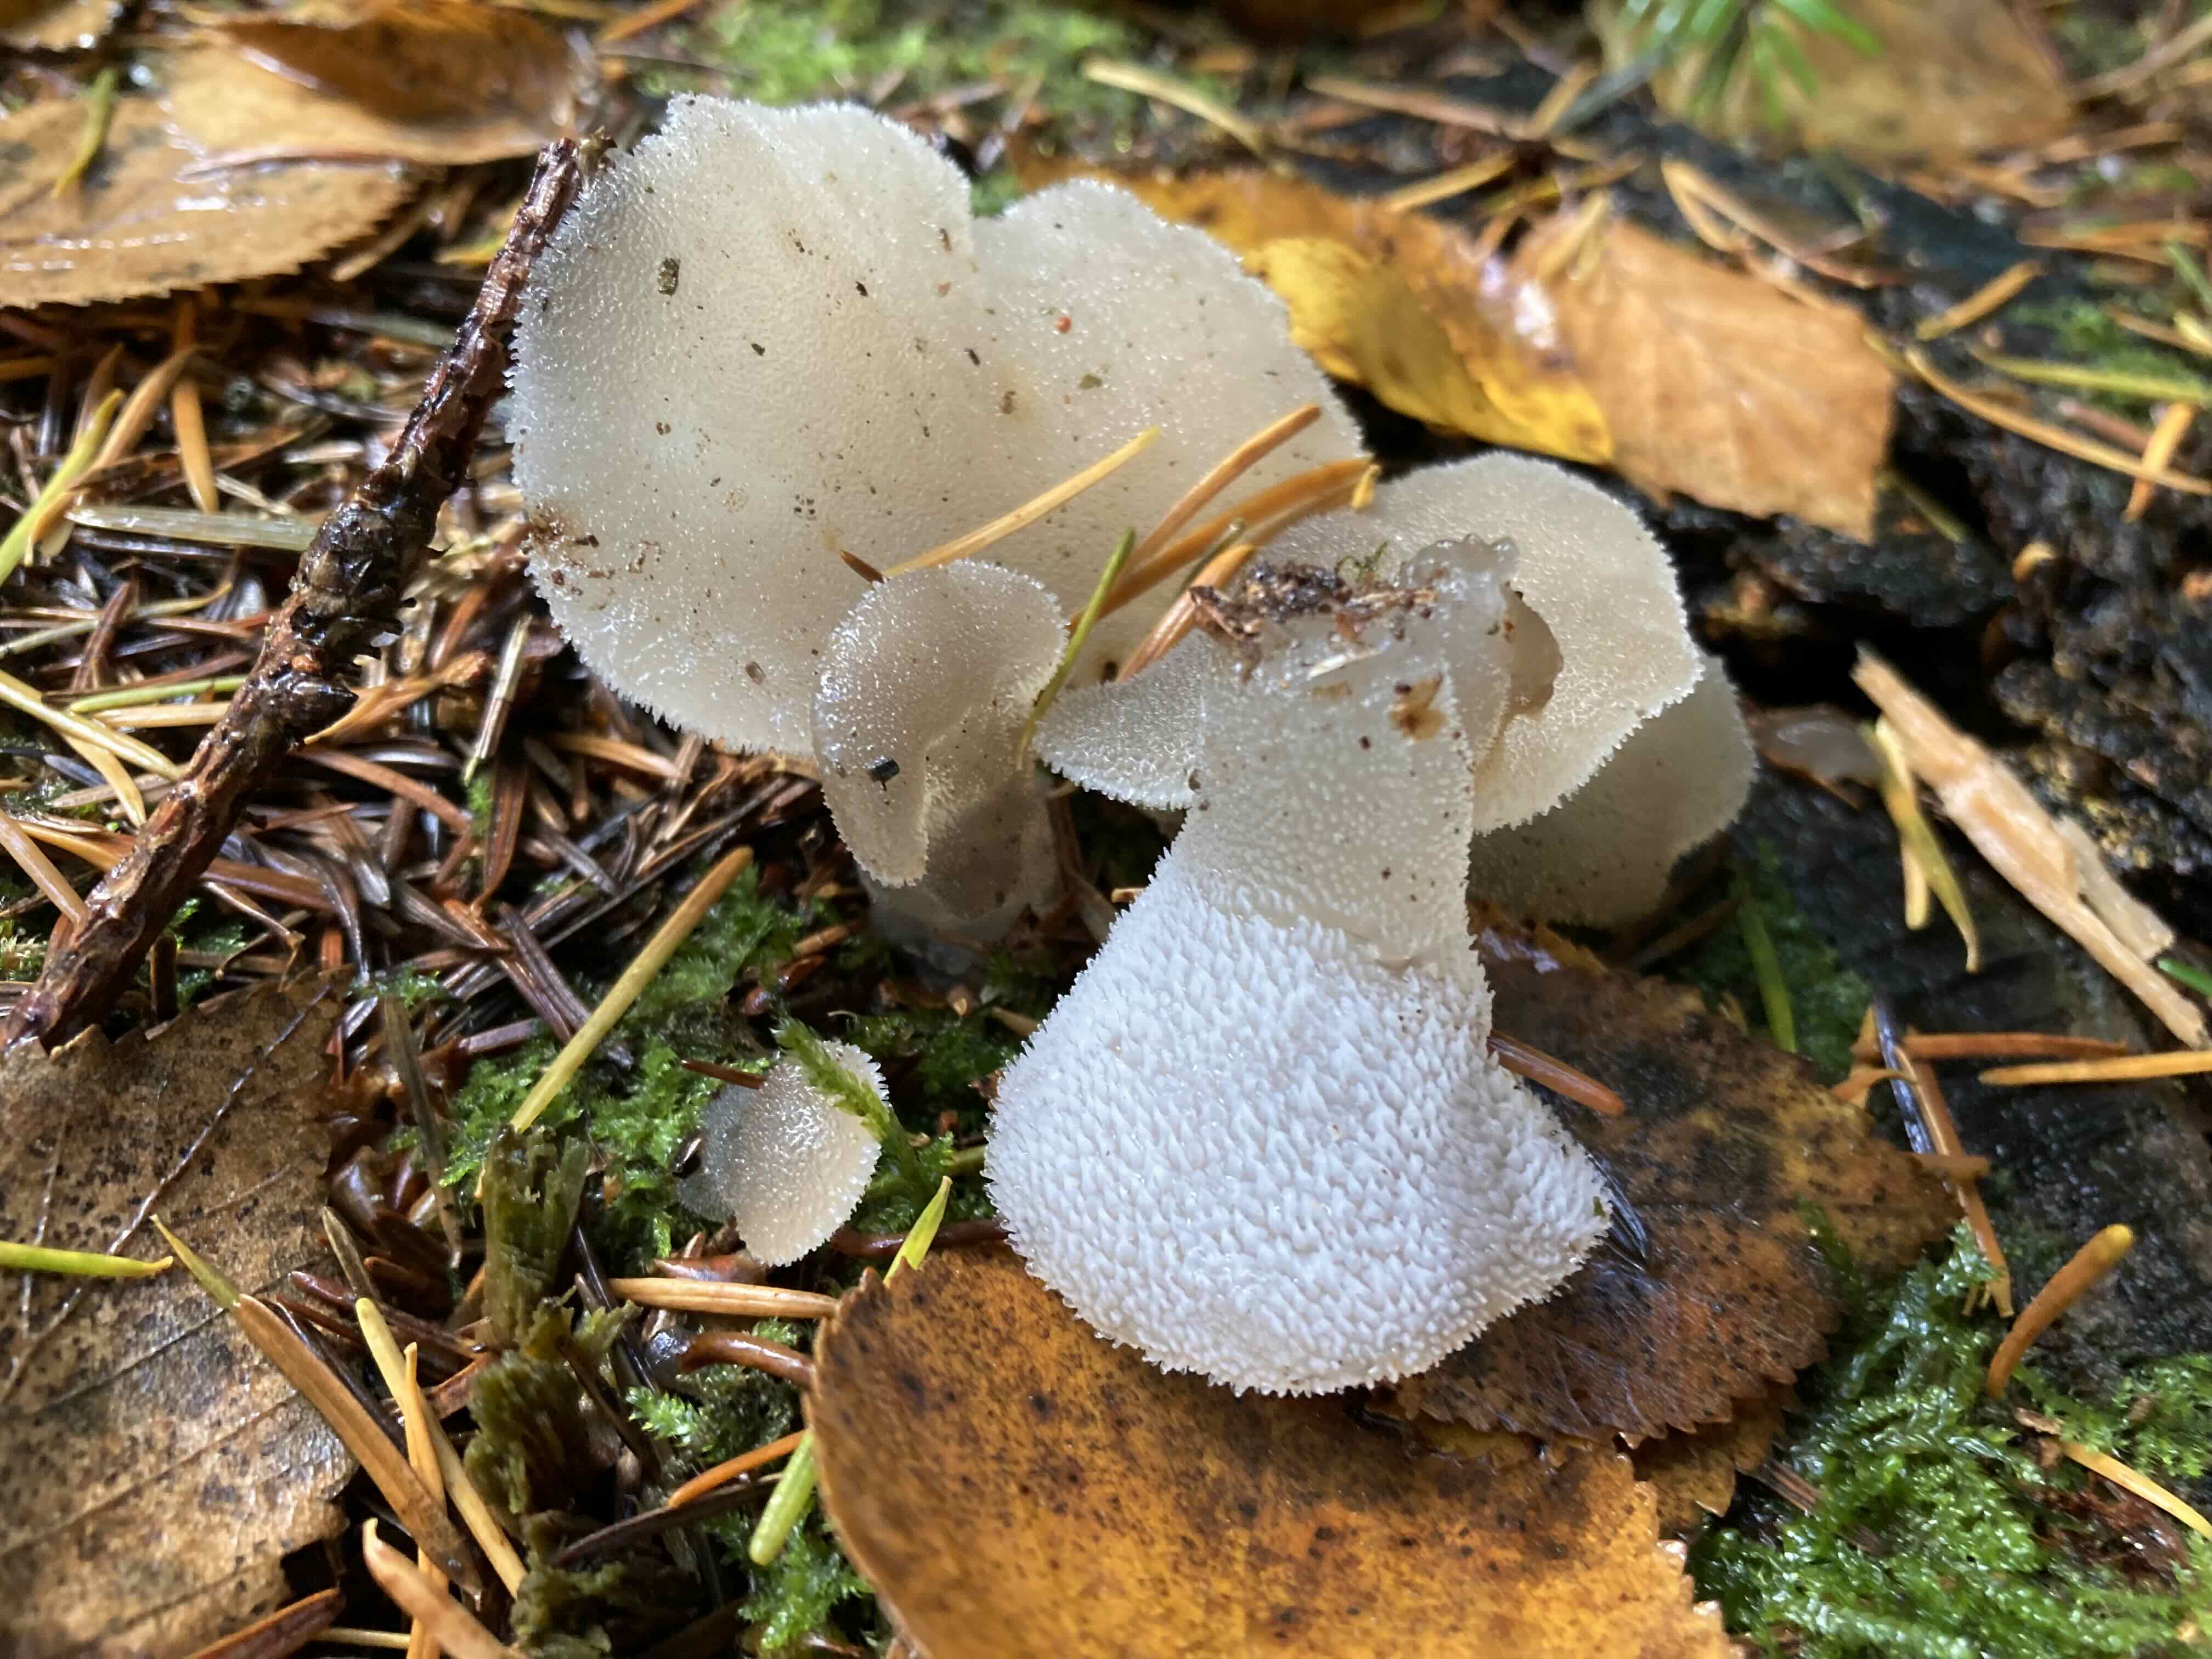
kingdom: Fungi
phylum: Basidiomycota
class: Agaricomycetes
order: Auriculariales
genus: Pseudohydnum
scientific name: Pseudohydnum gelatinosum
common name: bævretand
